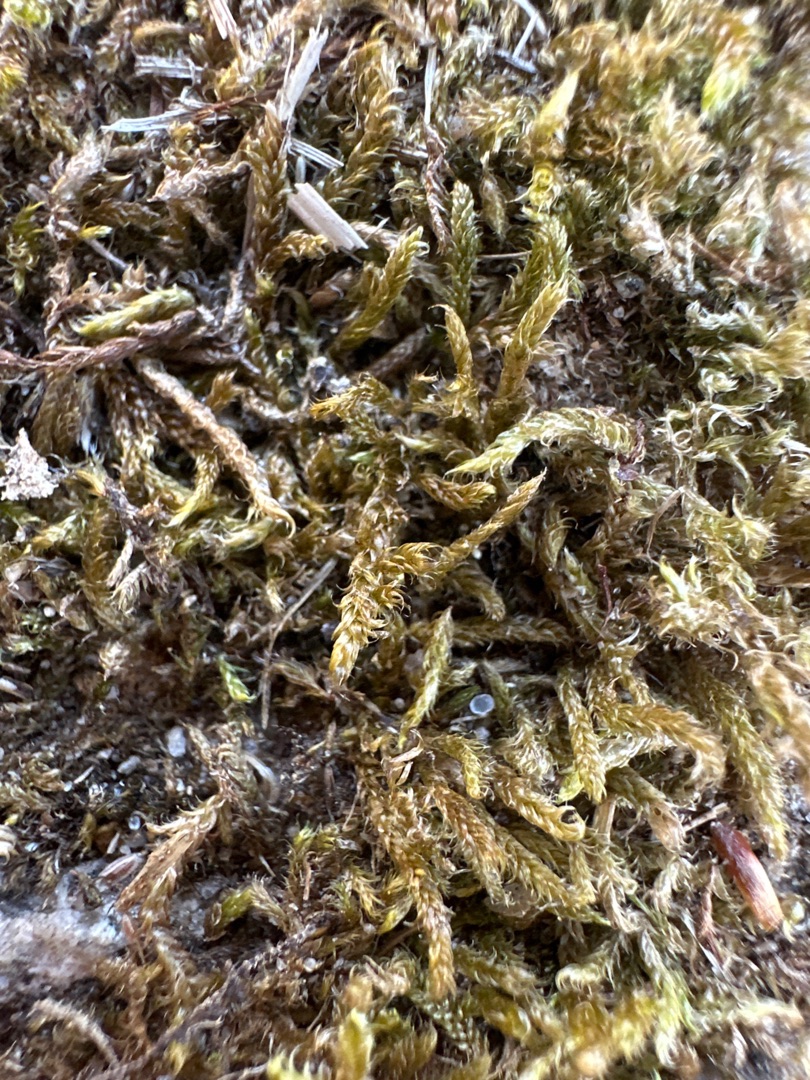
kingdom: Plantae
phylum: Bryophyta
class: Bryopsida
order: Hypnales
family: Hypnaceae
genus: Hypnum
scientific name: Hypnum cupressiforme
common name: Almindelig cypresmos
